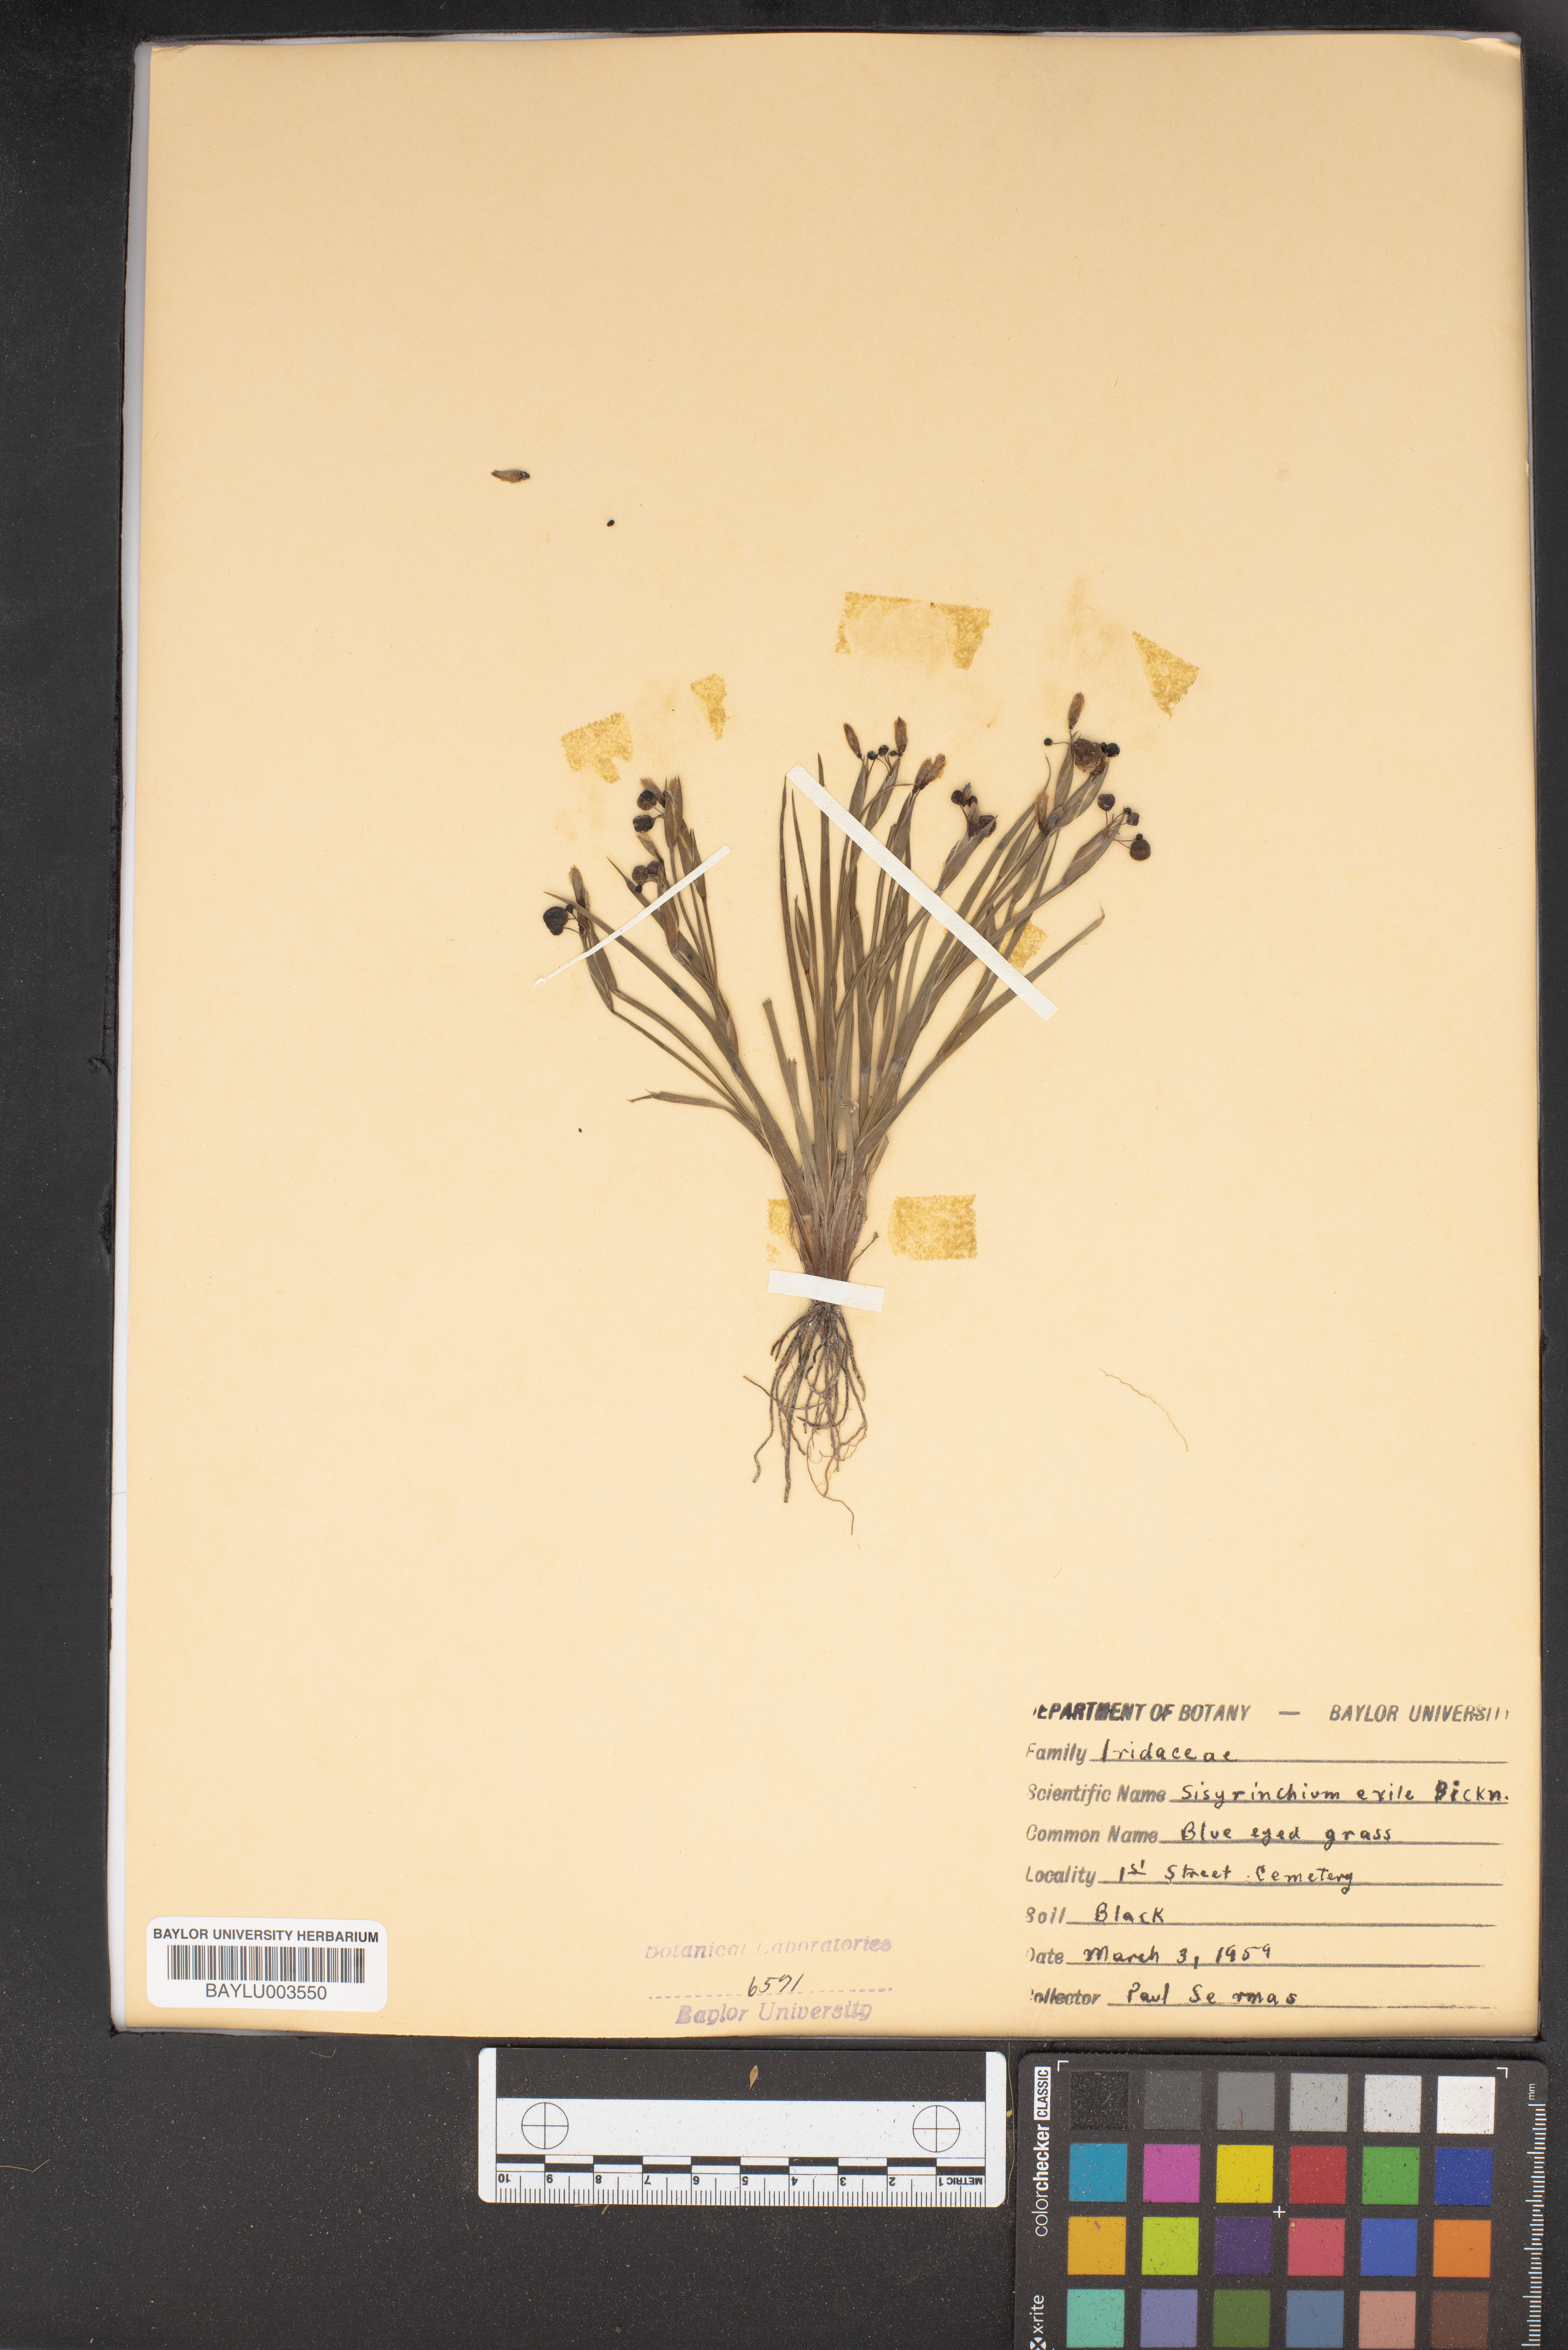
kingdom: Plantae
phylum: Tracheophyta
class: Liliopsida
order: Asparagales
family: Iridaceae
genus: Sisyrinchium
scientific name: Sisyrinchium rosulatum
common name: Annual blue-eyed grass
